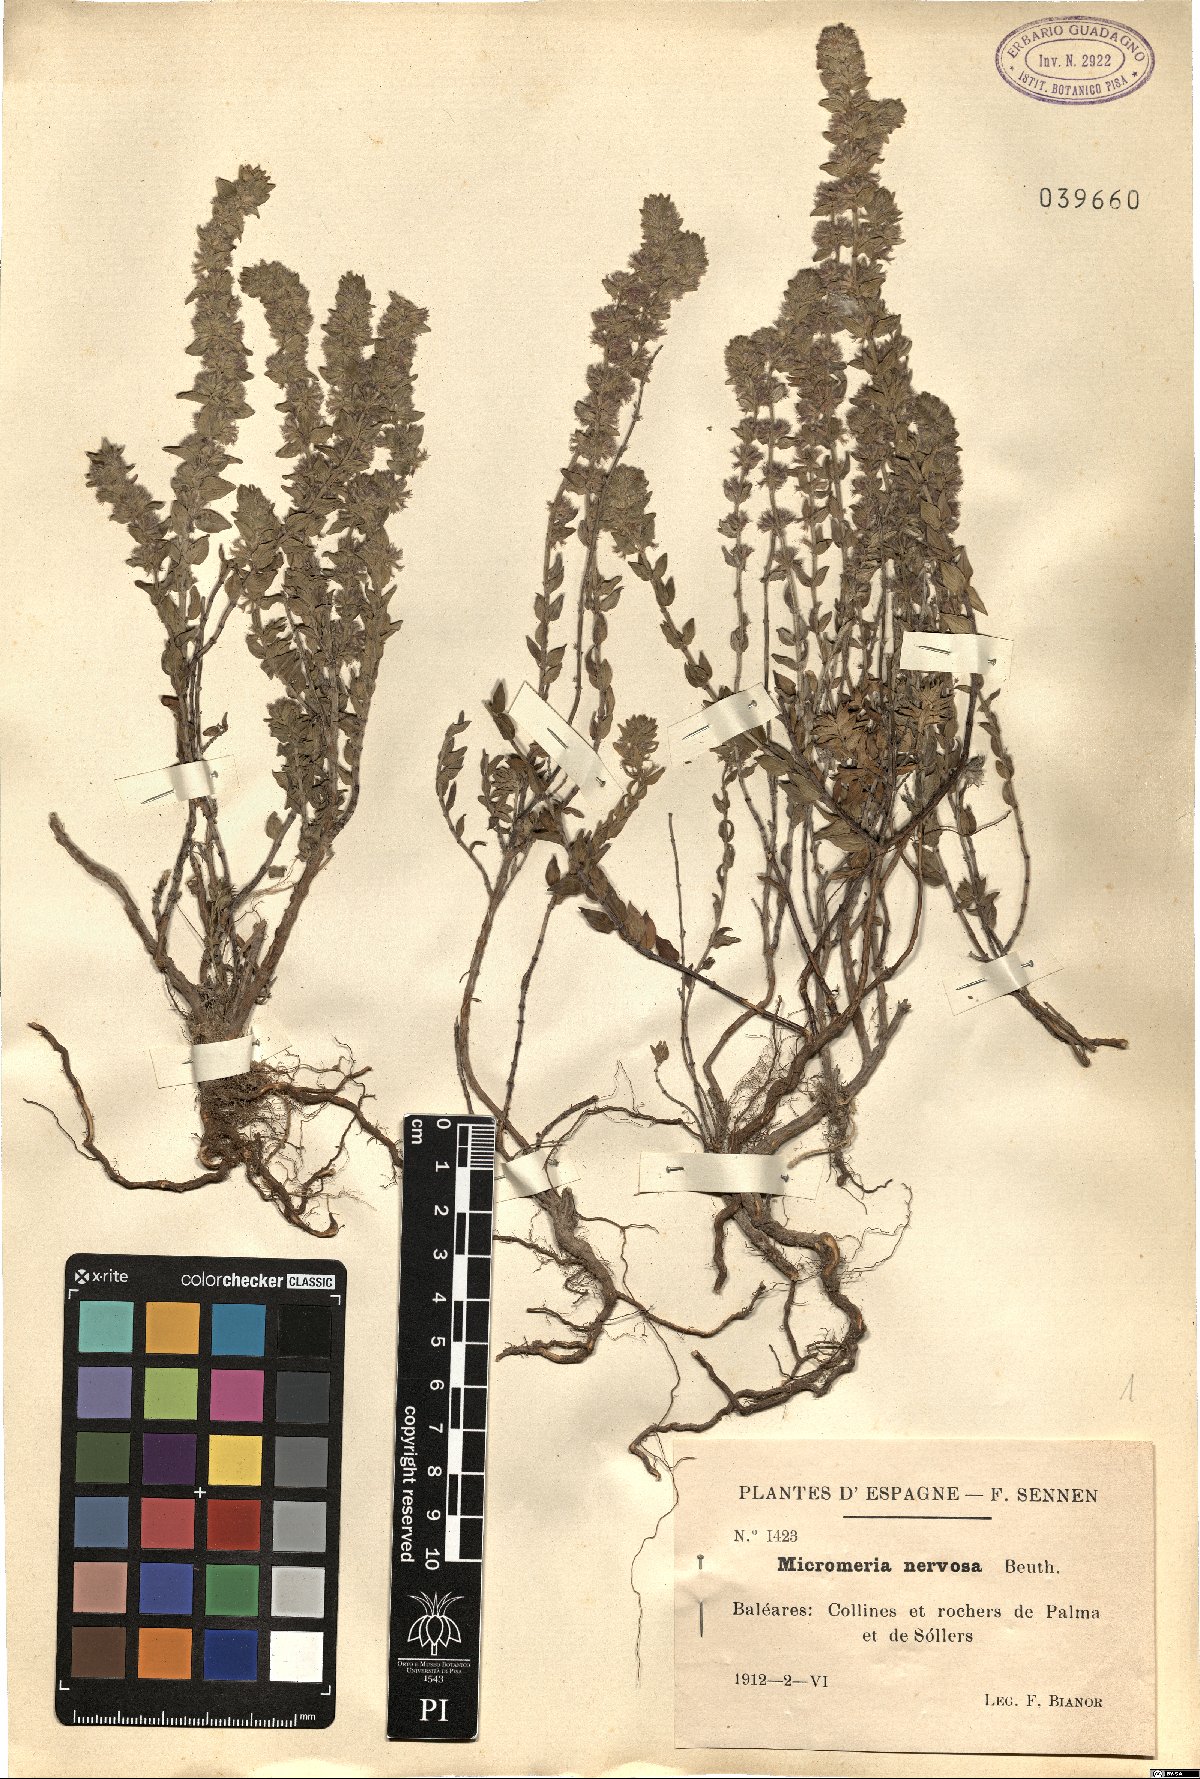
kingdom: Plantae
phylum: Tracheophyta
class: Magnoliopsida
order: Lamiales
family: Lamiaceae
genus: Micromeria
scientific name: Micromeria nervosa
